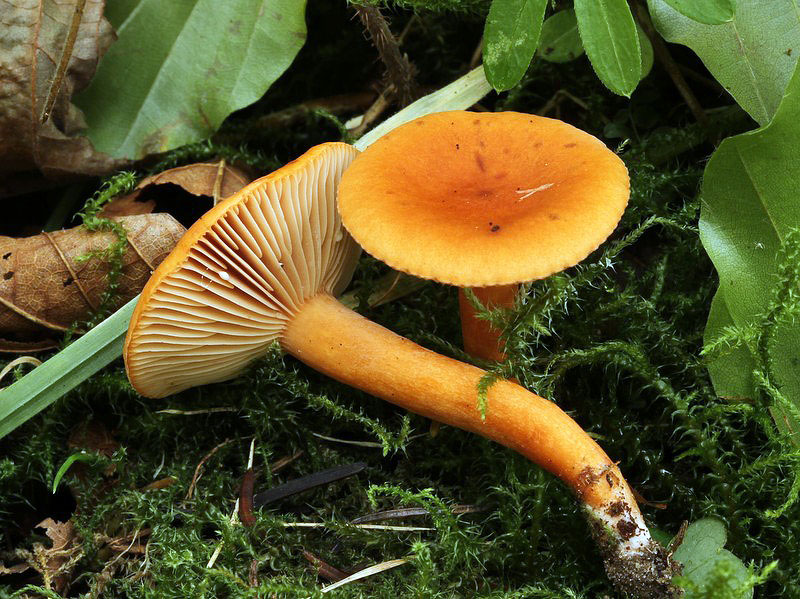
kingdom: Fungi
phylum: Basidiomycota
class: Agaricomycetes
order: Russulales
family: Russulaceae
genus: Lactarius
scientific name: Lactarius aurantiacus
